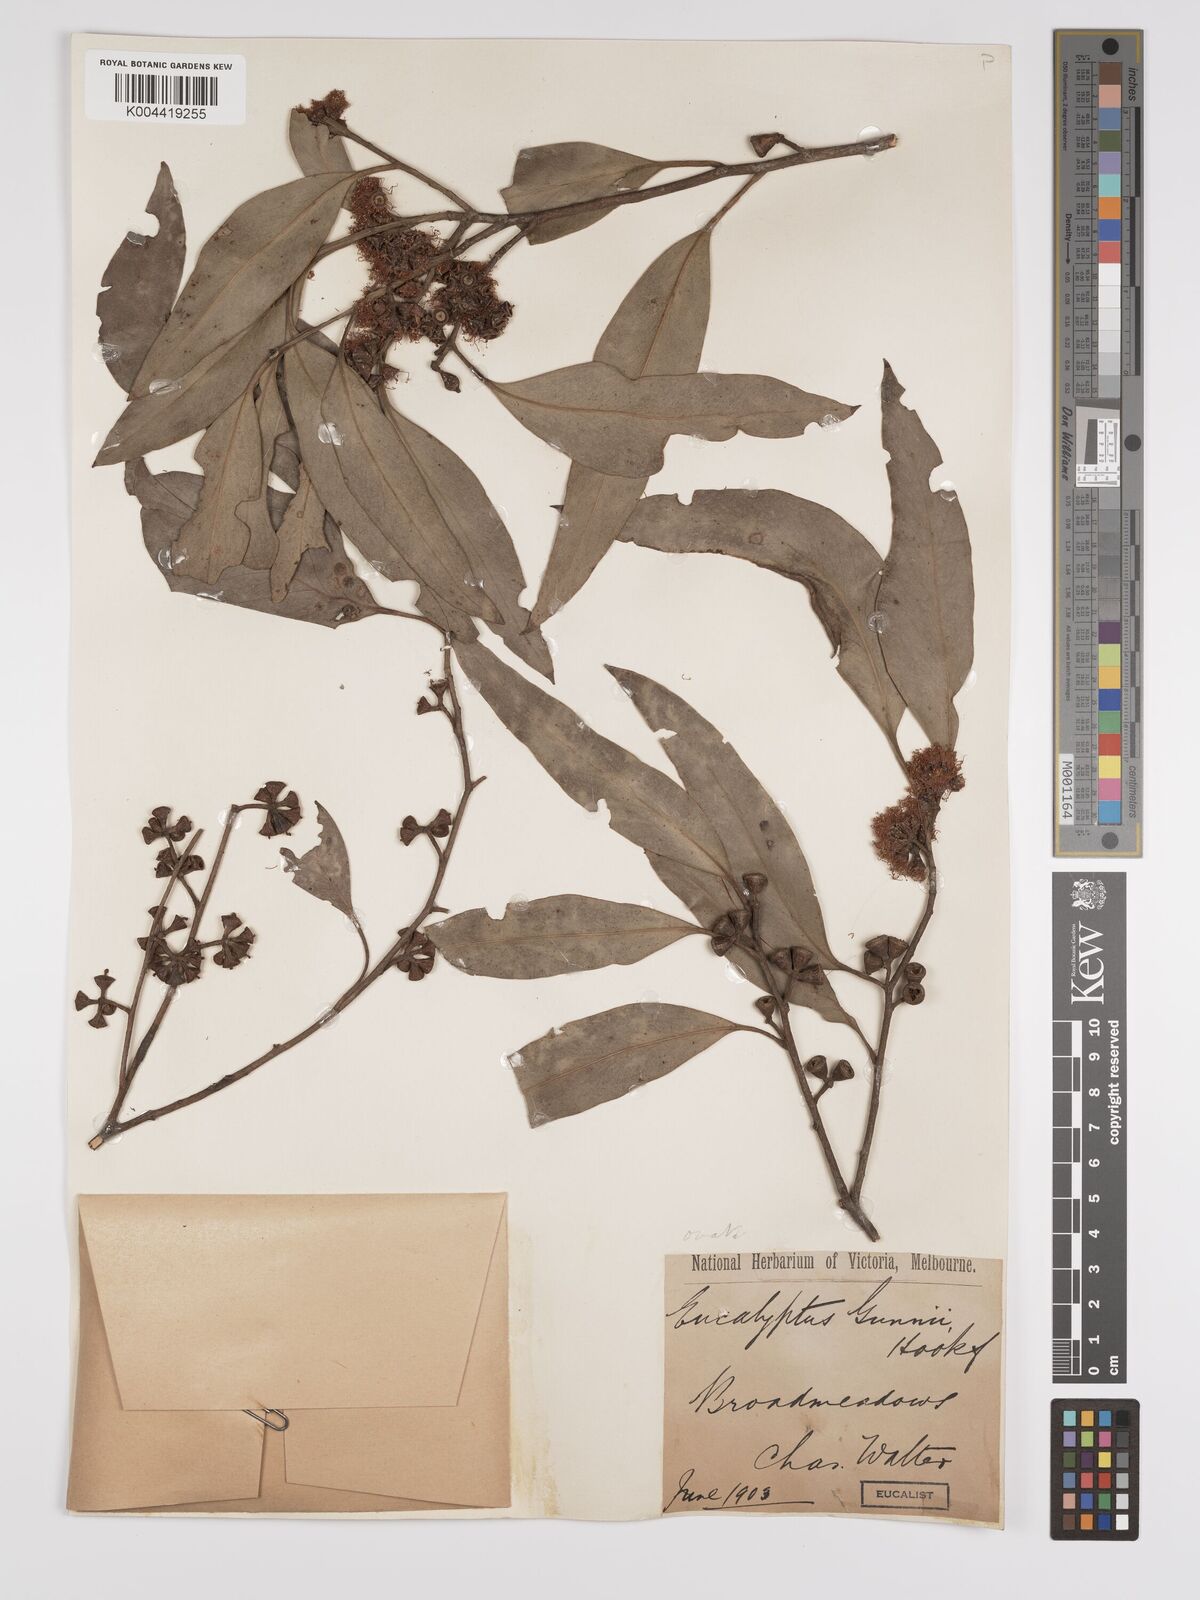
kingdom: Plantae
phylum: Tracheophyta
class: Magnoliopsida
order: Myrtales
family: Myrtaceae
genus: Eucalyptus
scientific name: Eucalyptus ovata
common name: Black-gum
